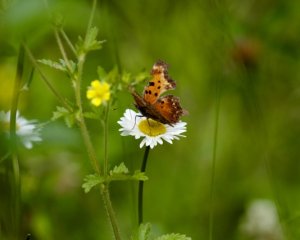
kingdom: Animalia
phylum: Arthropoda
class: Insecta
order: Lepidoptera
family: Nymphalidae
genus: Polygonia
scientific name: Polygonia progne
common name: Gray Comma
